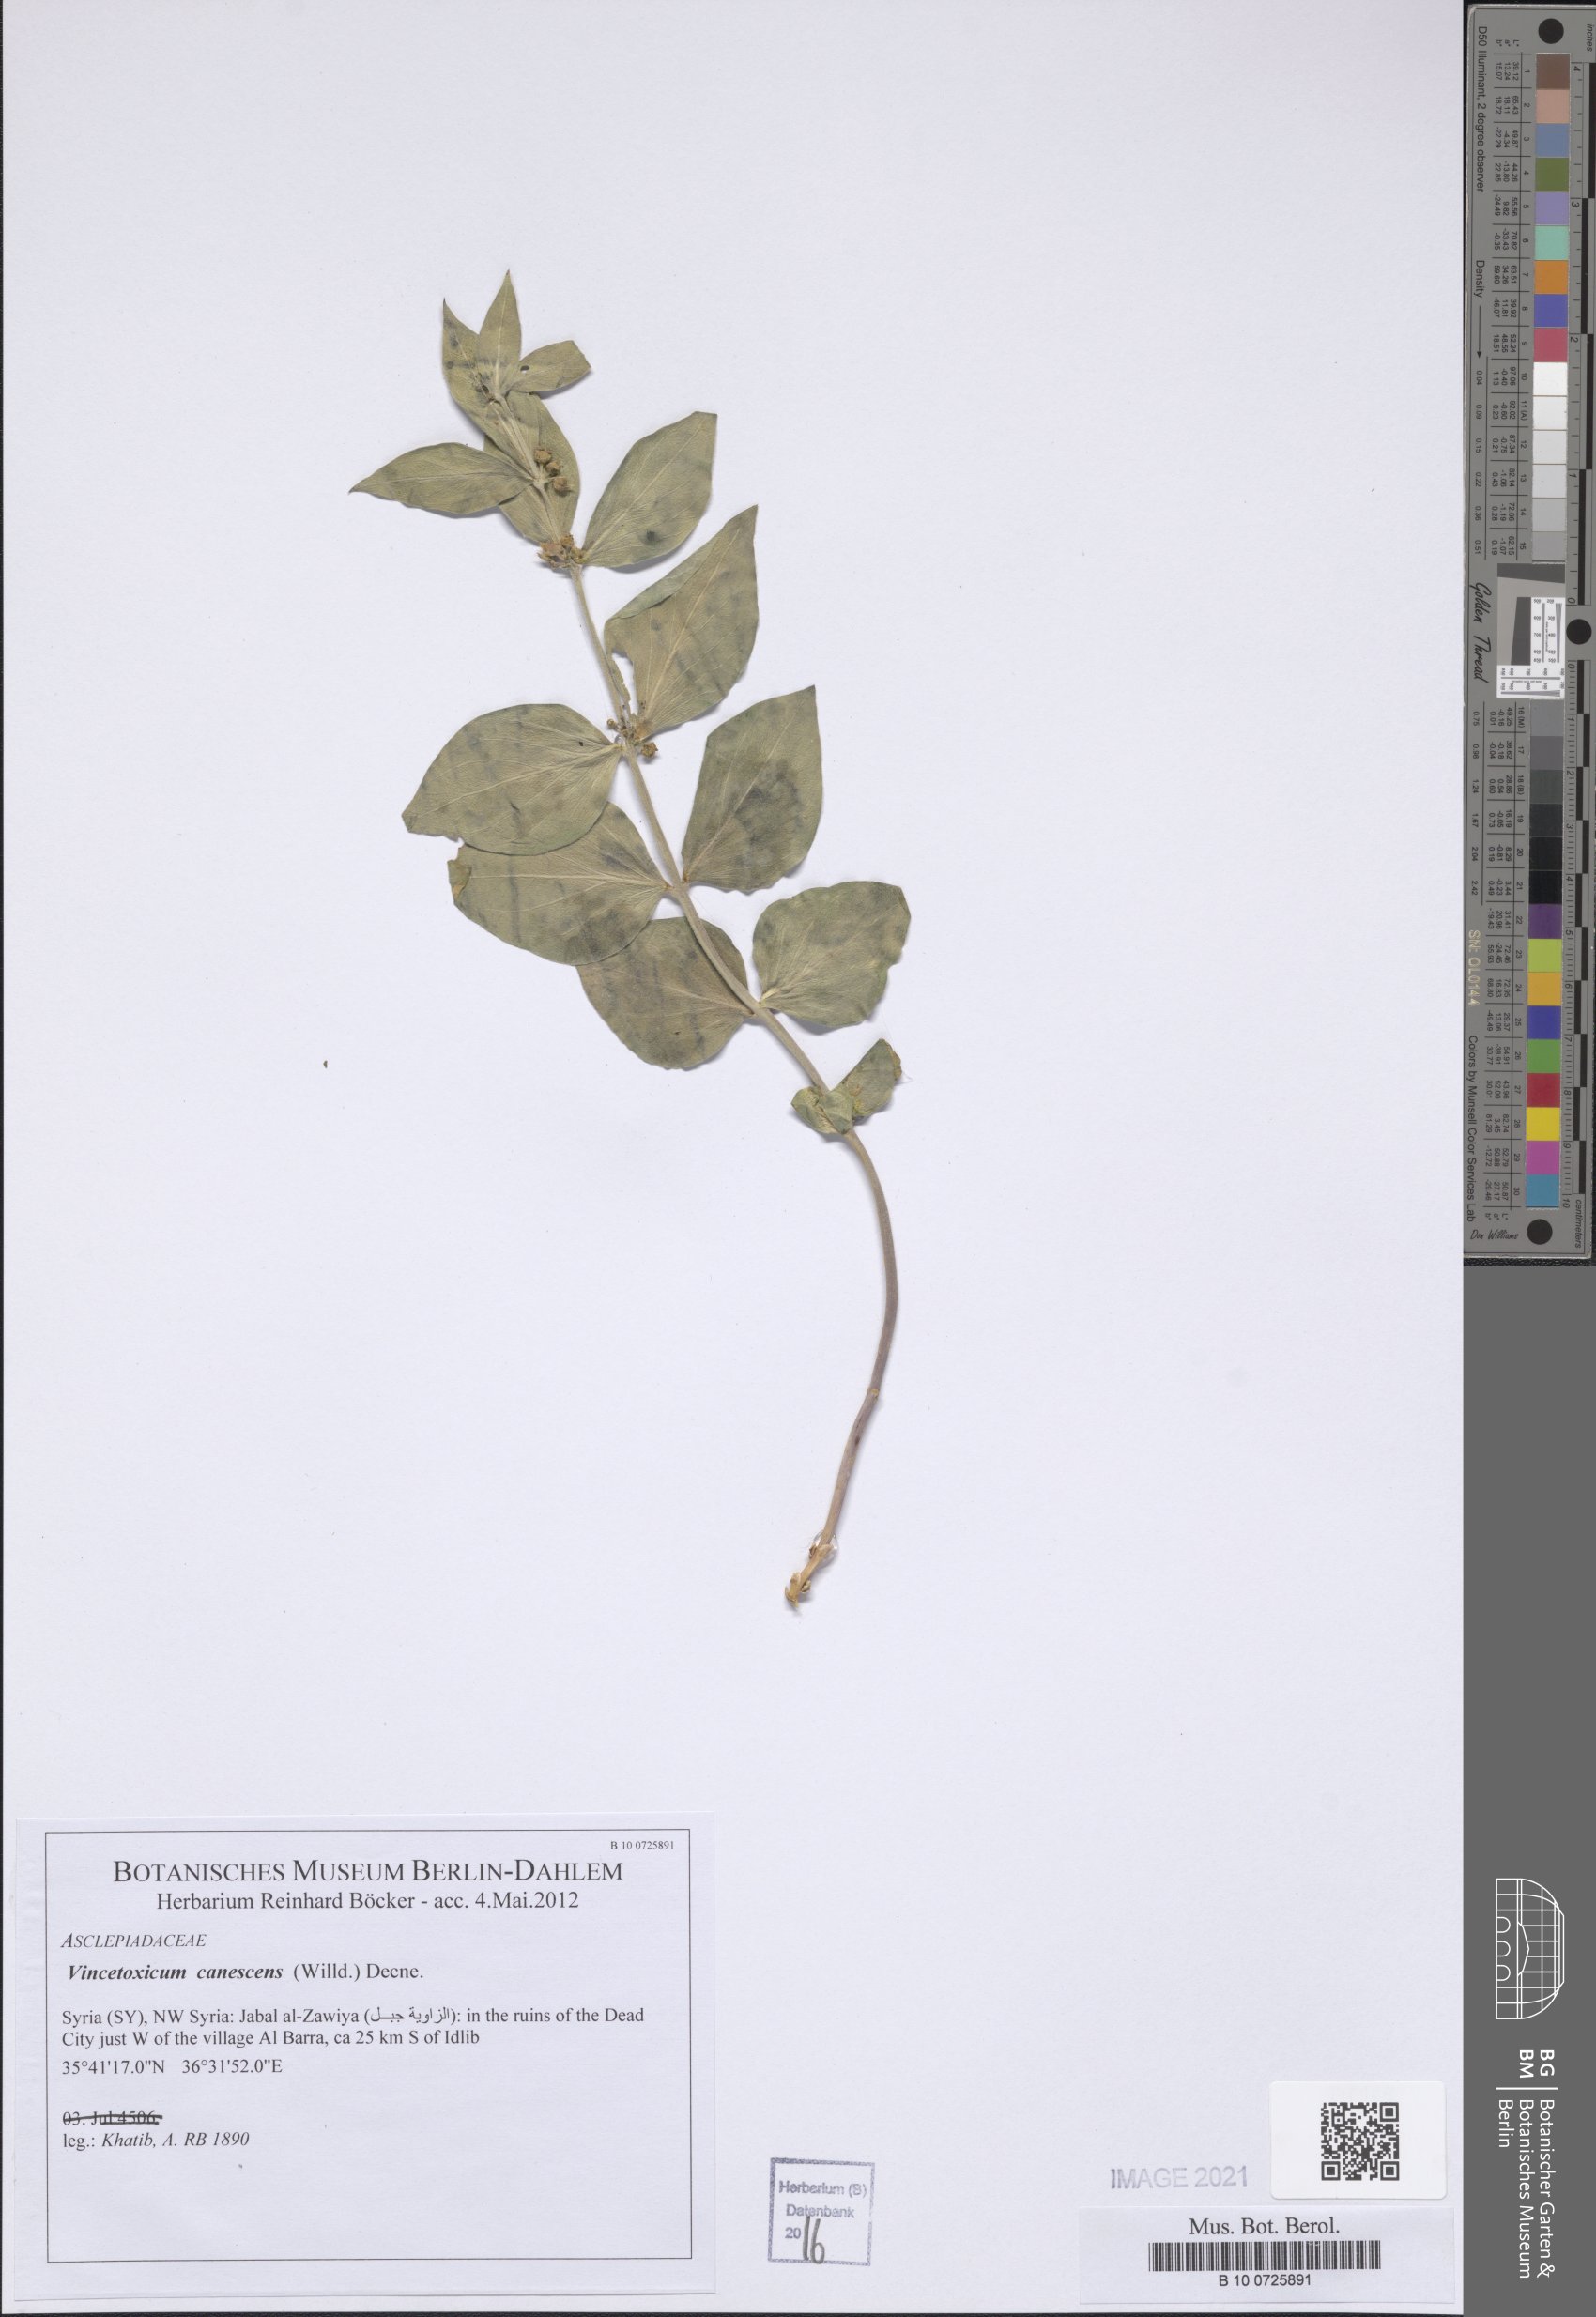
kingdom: Plantae
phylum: Tracheophyta
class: Magnoliopsida
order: Gentianales
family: Apocynaceae
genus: Vincetoxicum
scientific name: Vincetoxicum canescens
